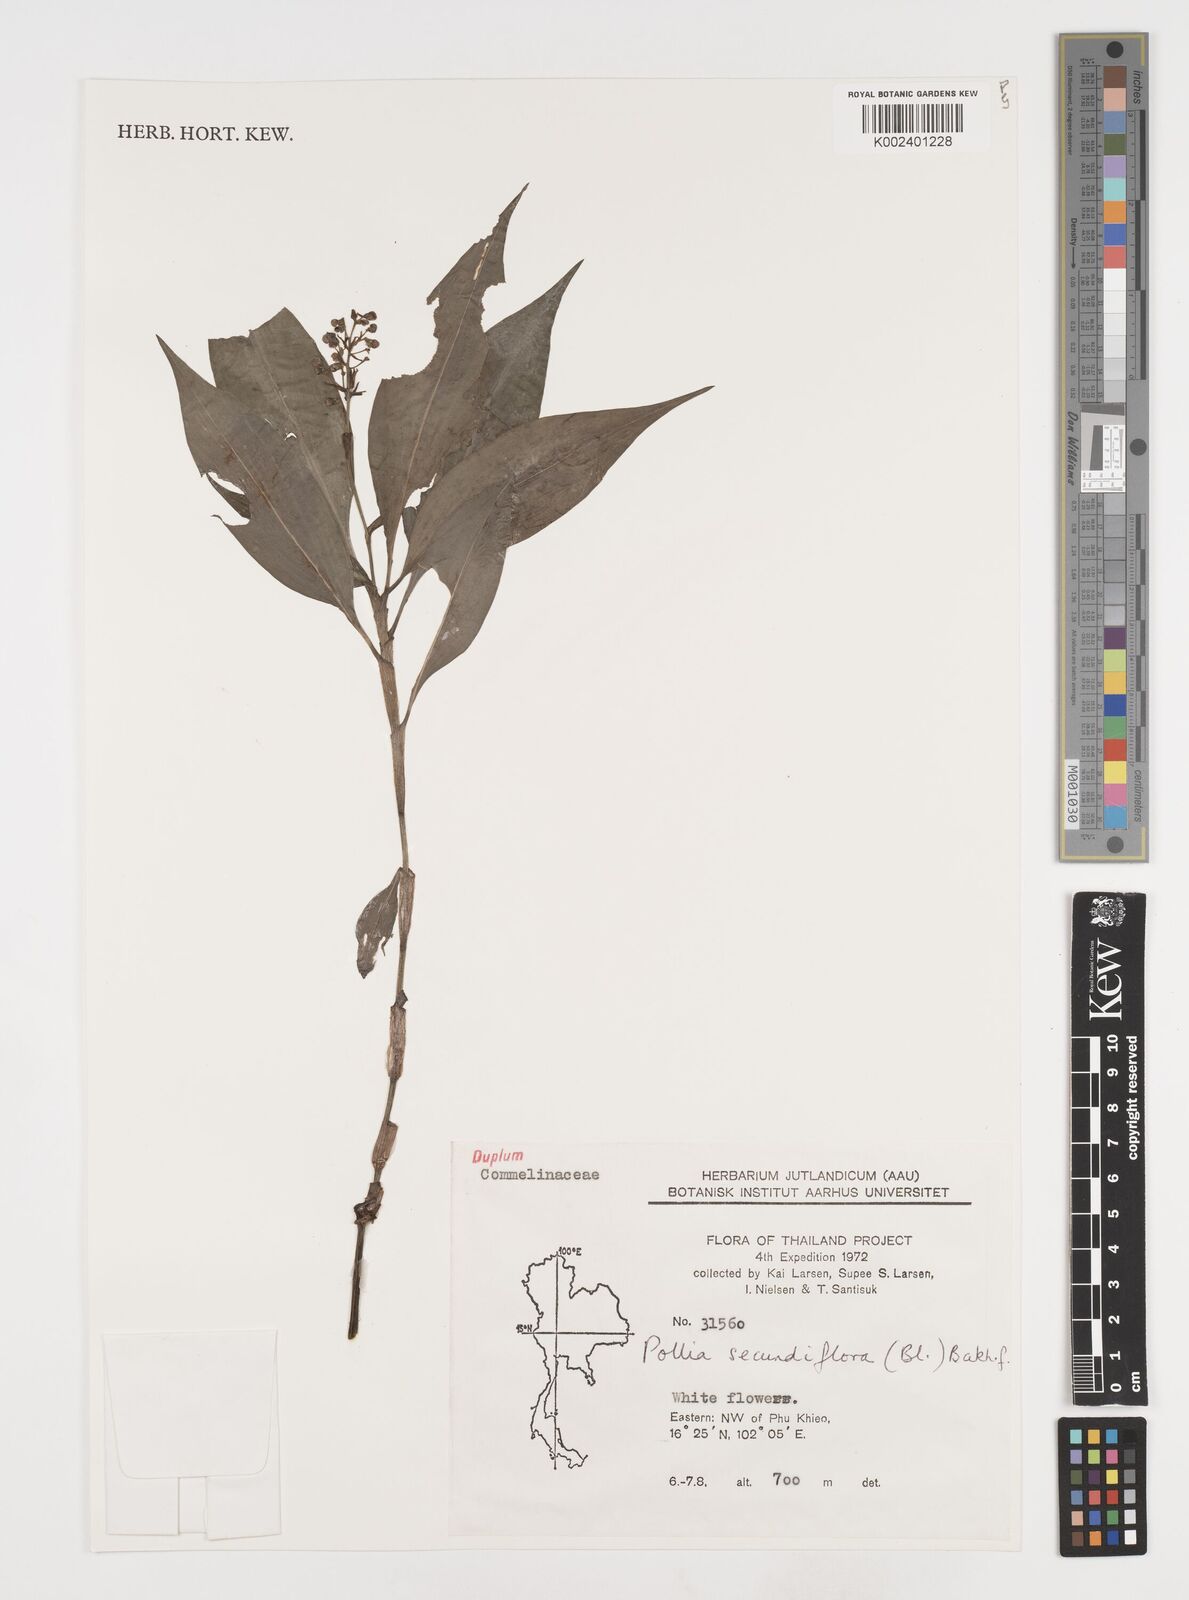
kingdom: Plantae
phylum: Tracheophyta
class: Liliopsida
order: Commelinales
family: Commelinaceae
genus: Pollia
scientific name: Pollia secundiflora
